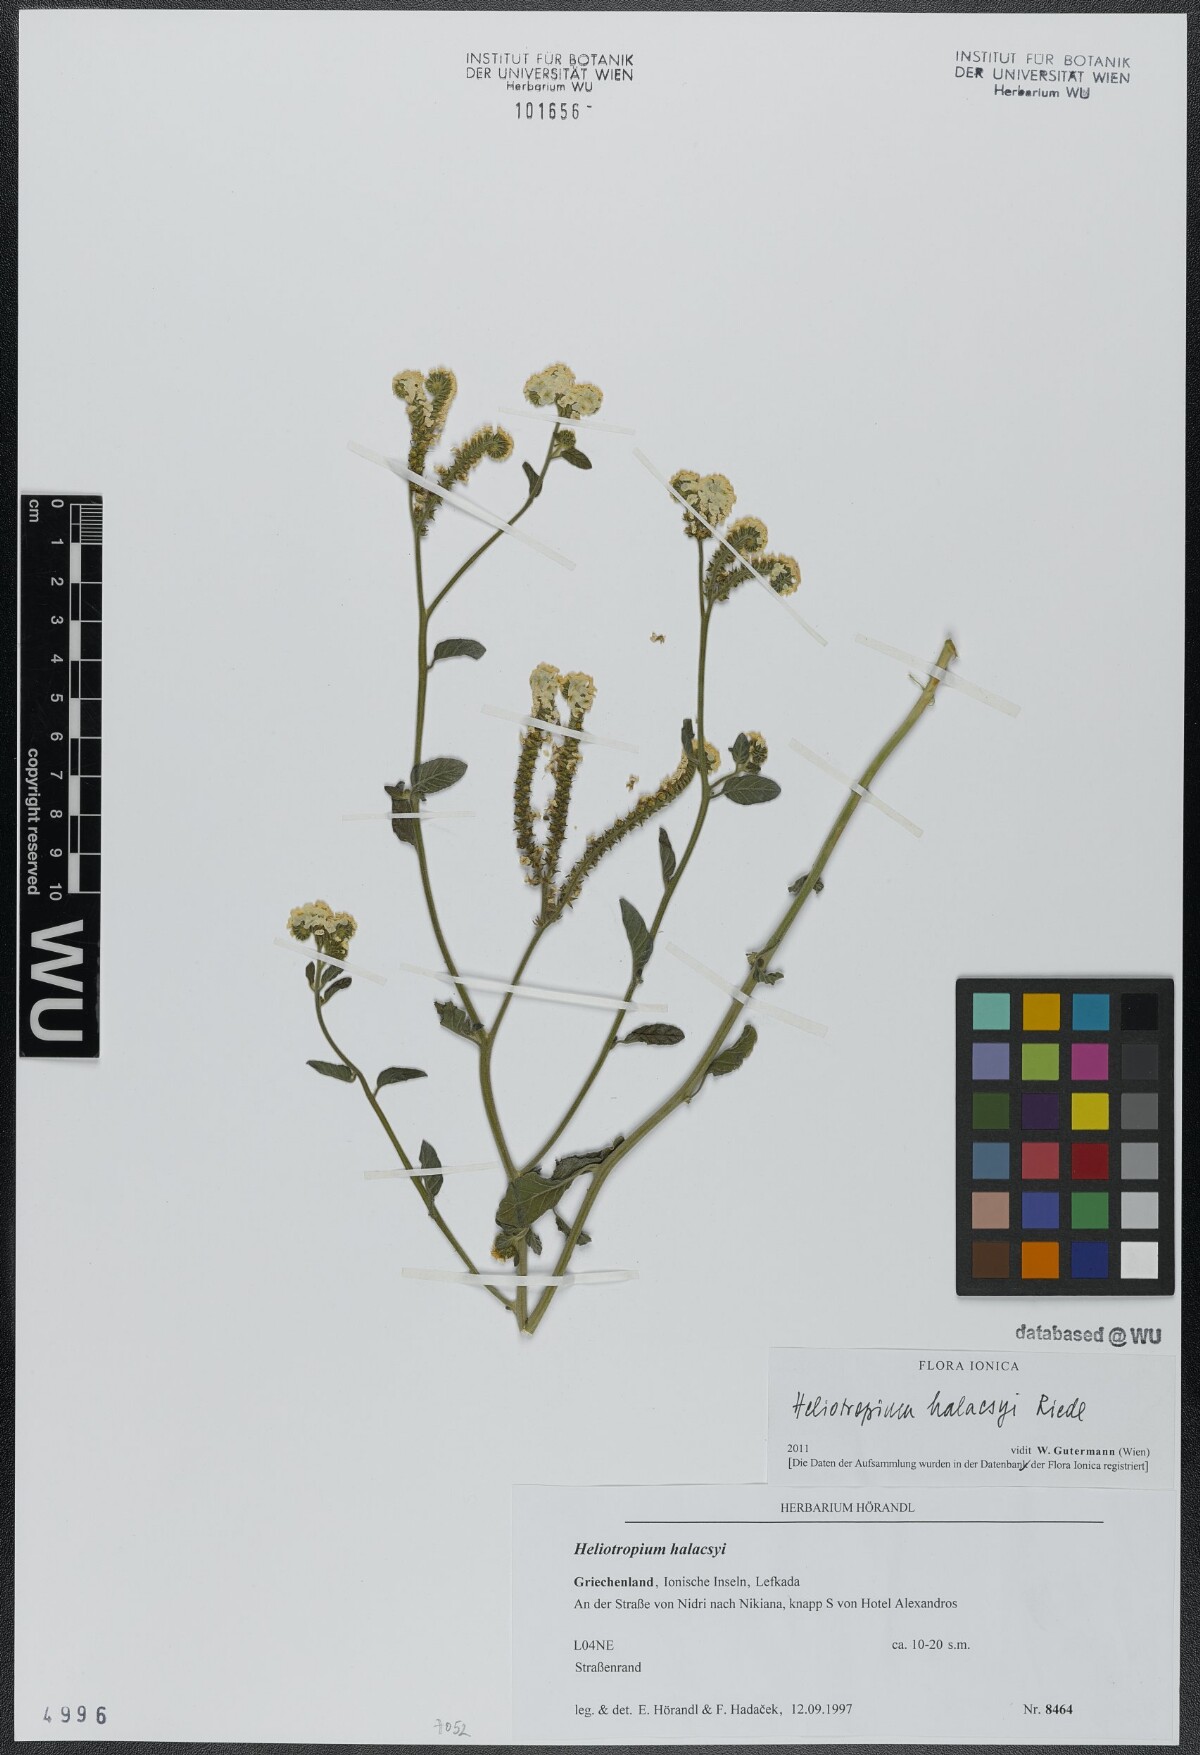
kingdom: Plantae
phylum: Tracheophyta
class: Magnoliopsida
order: Boraginales
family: Heliotropiaceae
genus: Heliotropium
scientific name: Heliotropium halacsyi
